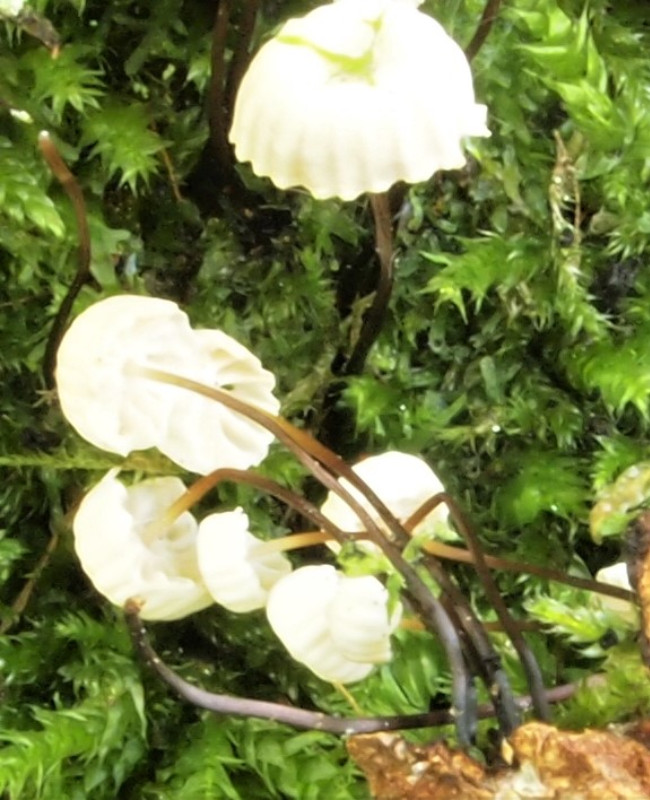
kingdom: Fungi
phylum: Basidiomycota
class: Agaricomycetes
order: Agaricales
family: Marasmiaceae
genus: Marasmius
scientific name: Marasmius rotula
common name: hjul-bruskhat
